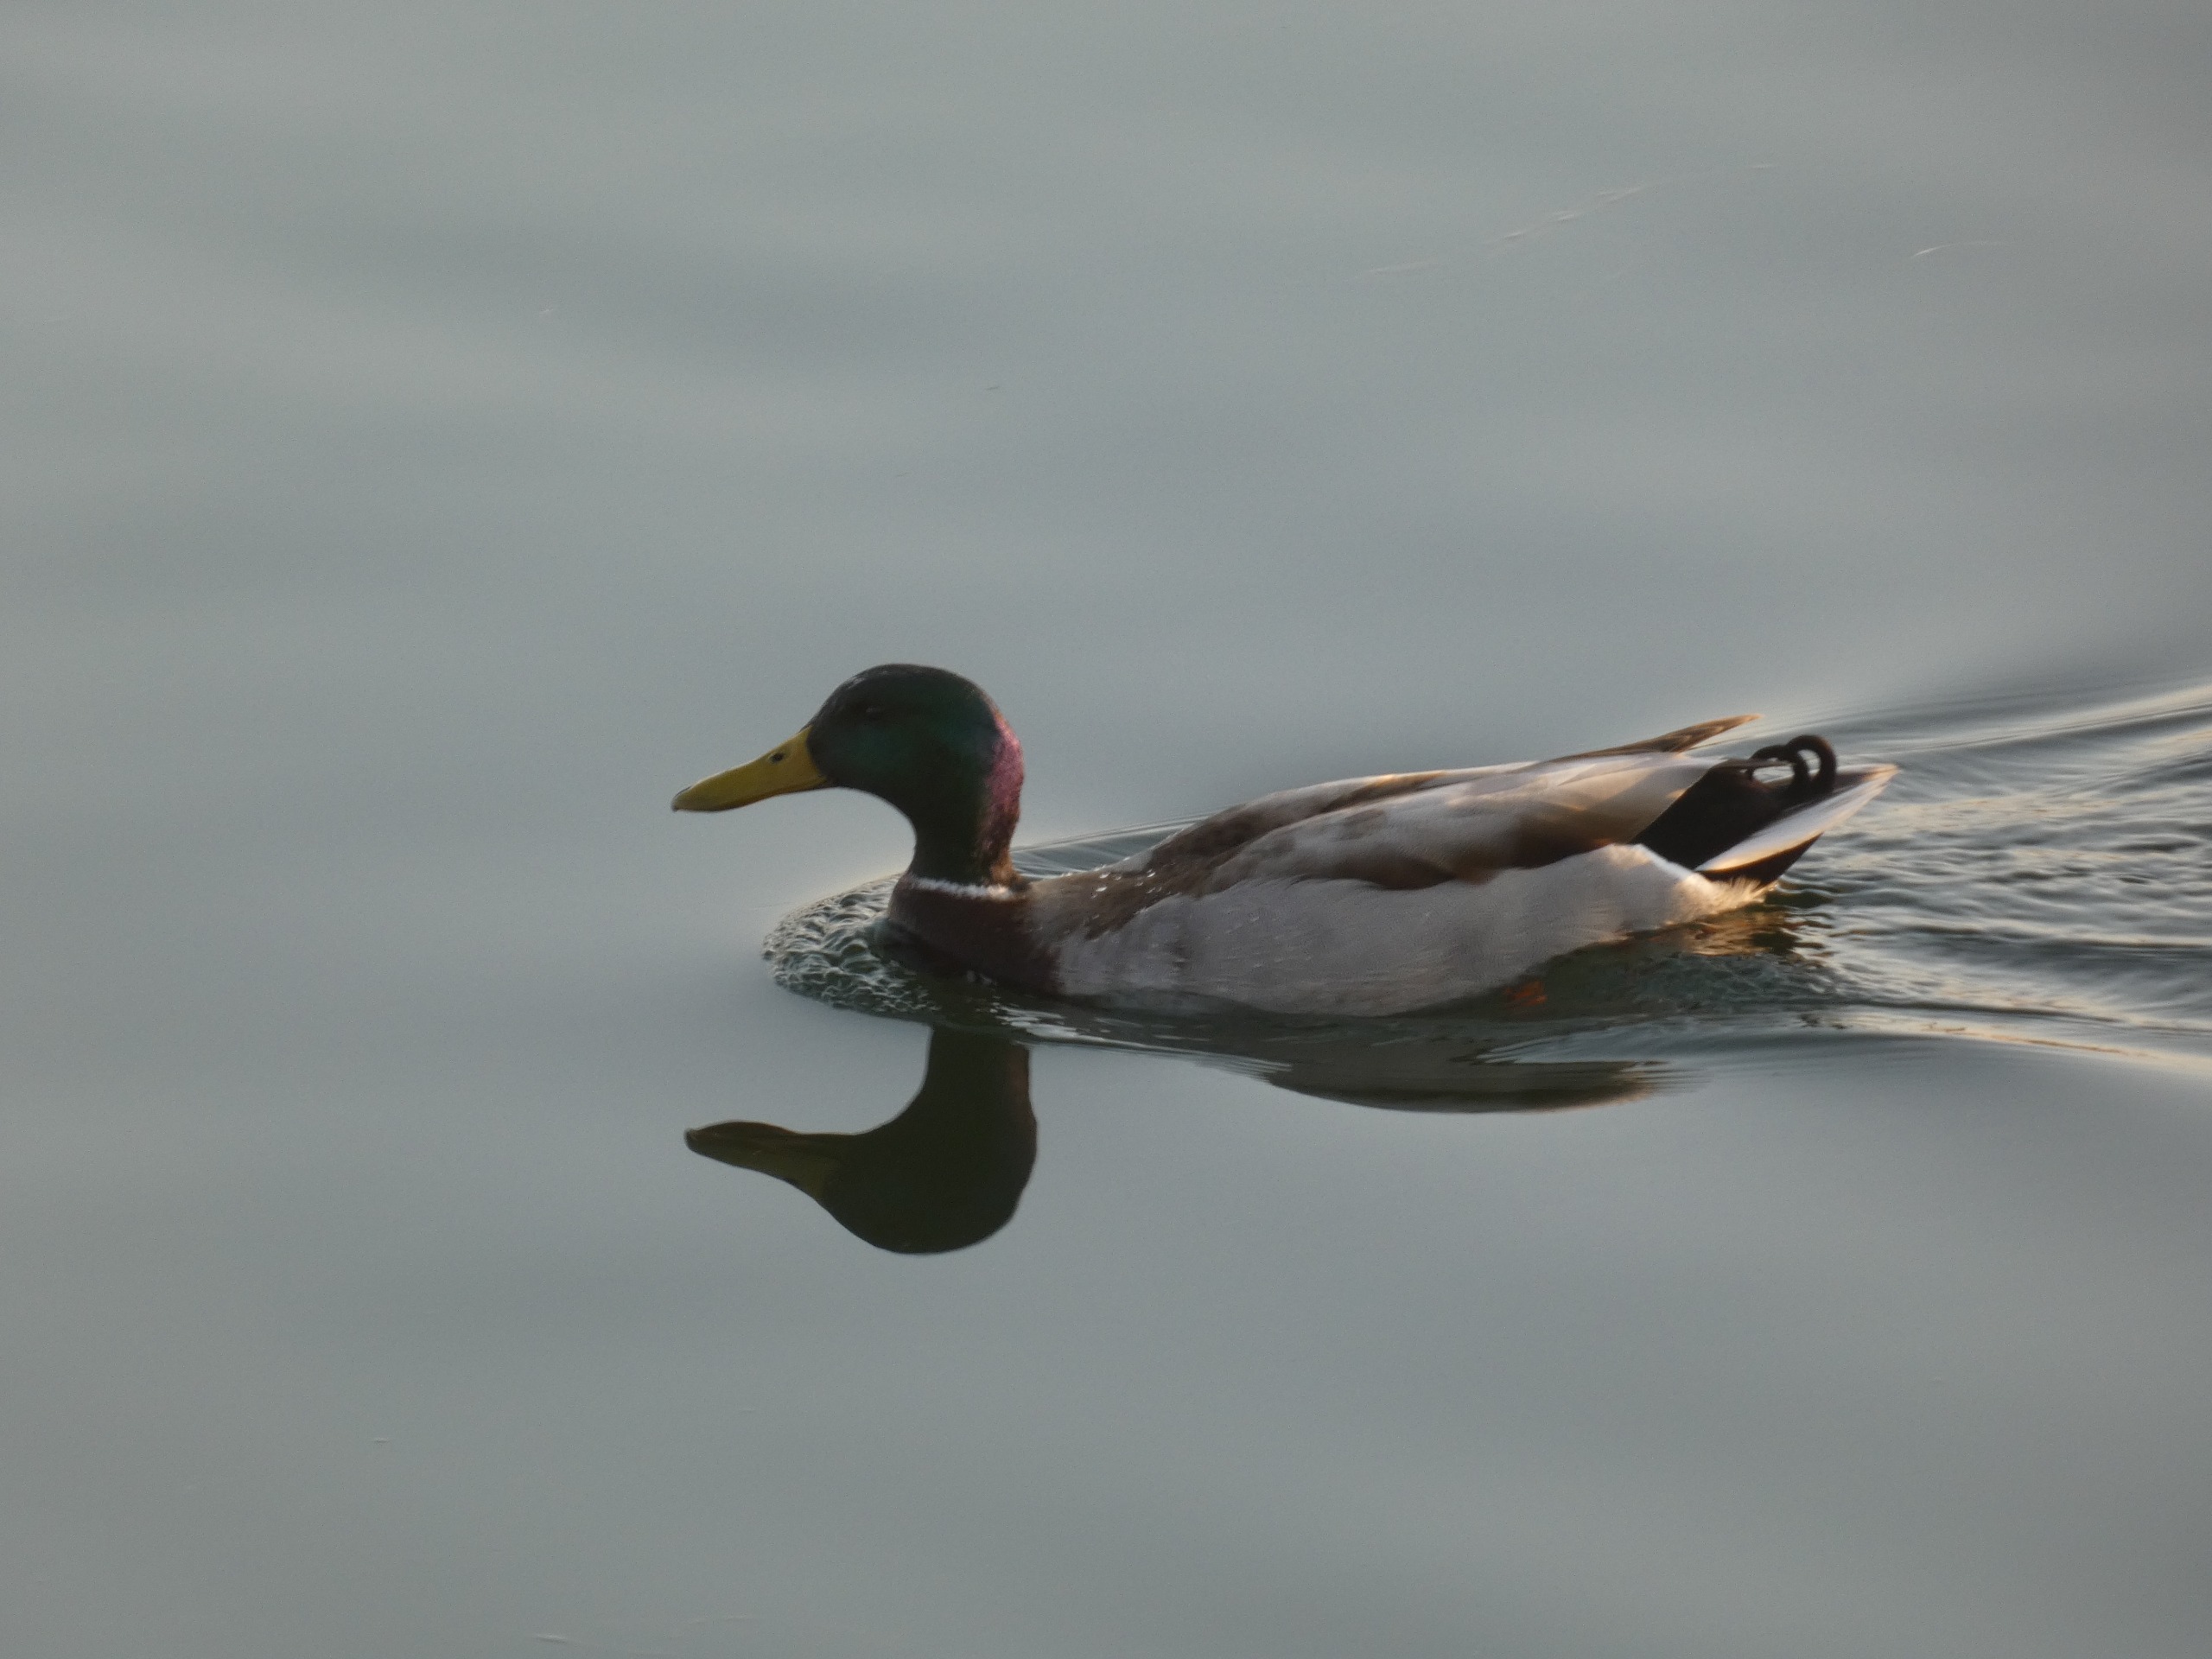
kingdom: Animalia
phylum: Chordata
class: Aves
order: Anseriformes
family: Anatidae
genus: Anas
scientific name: Anas platyrhynchos
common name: Gråand
